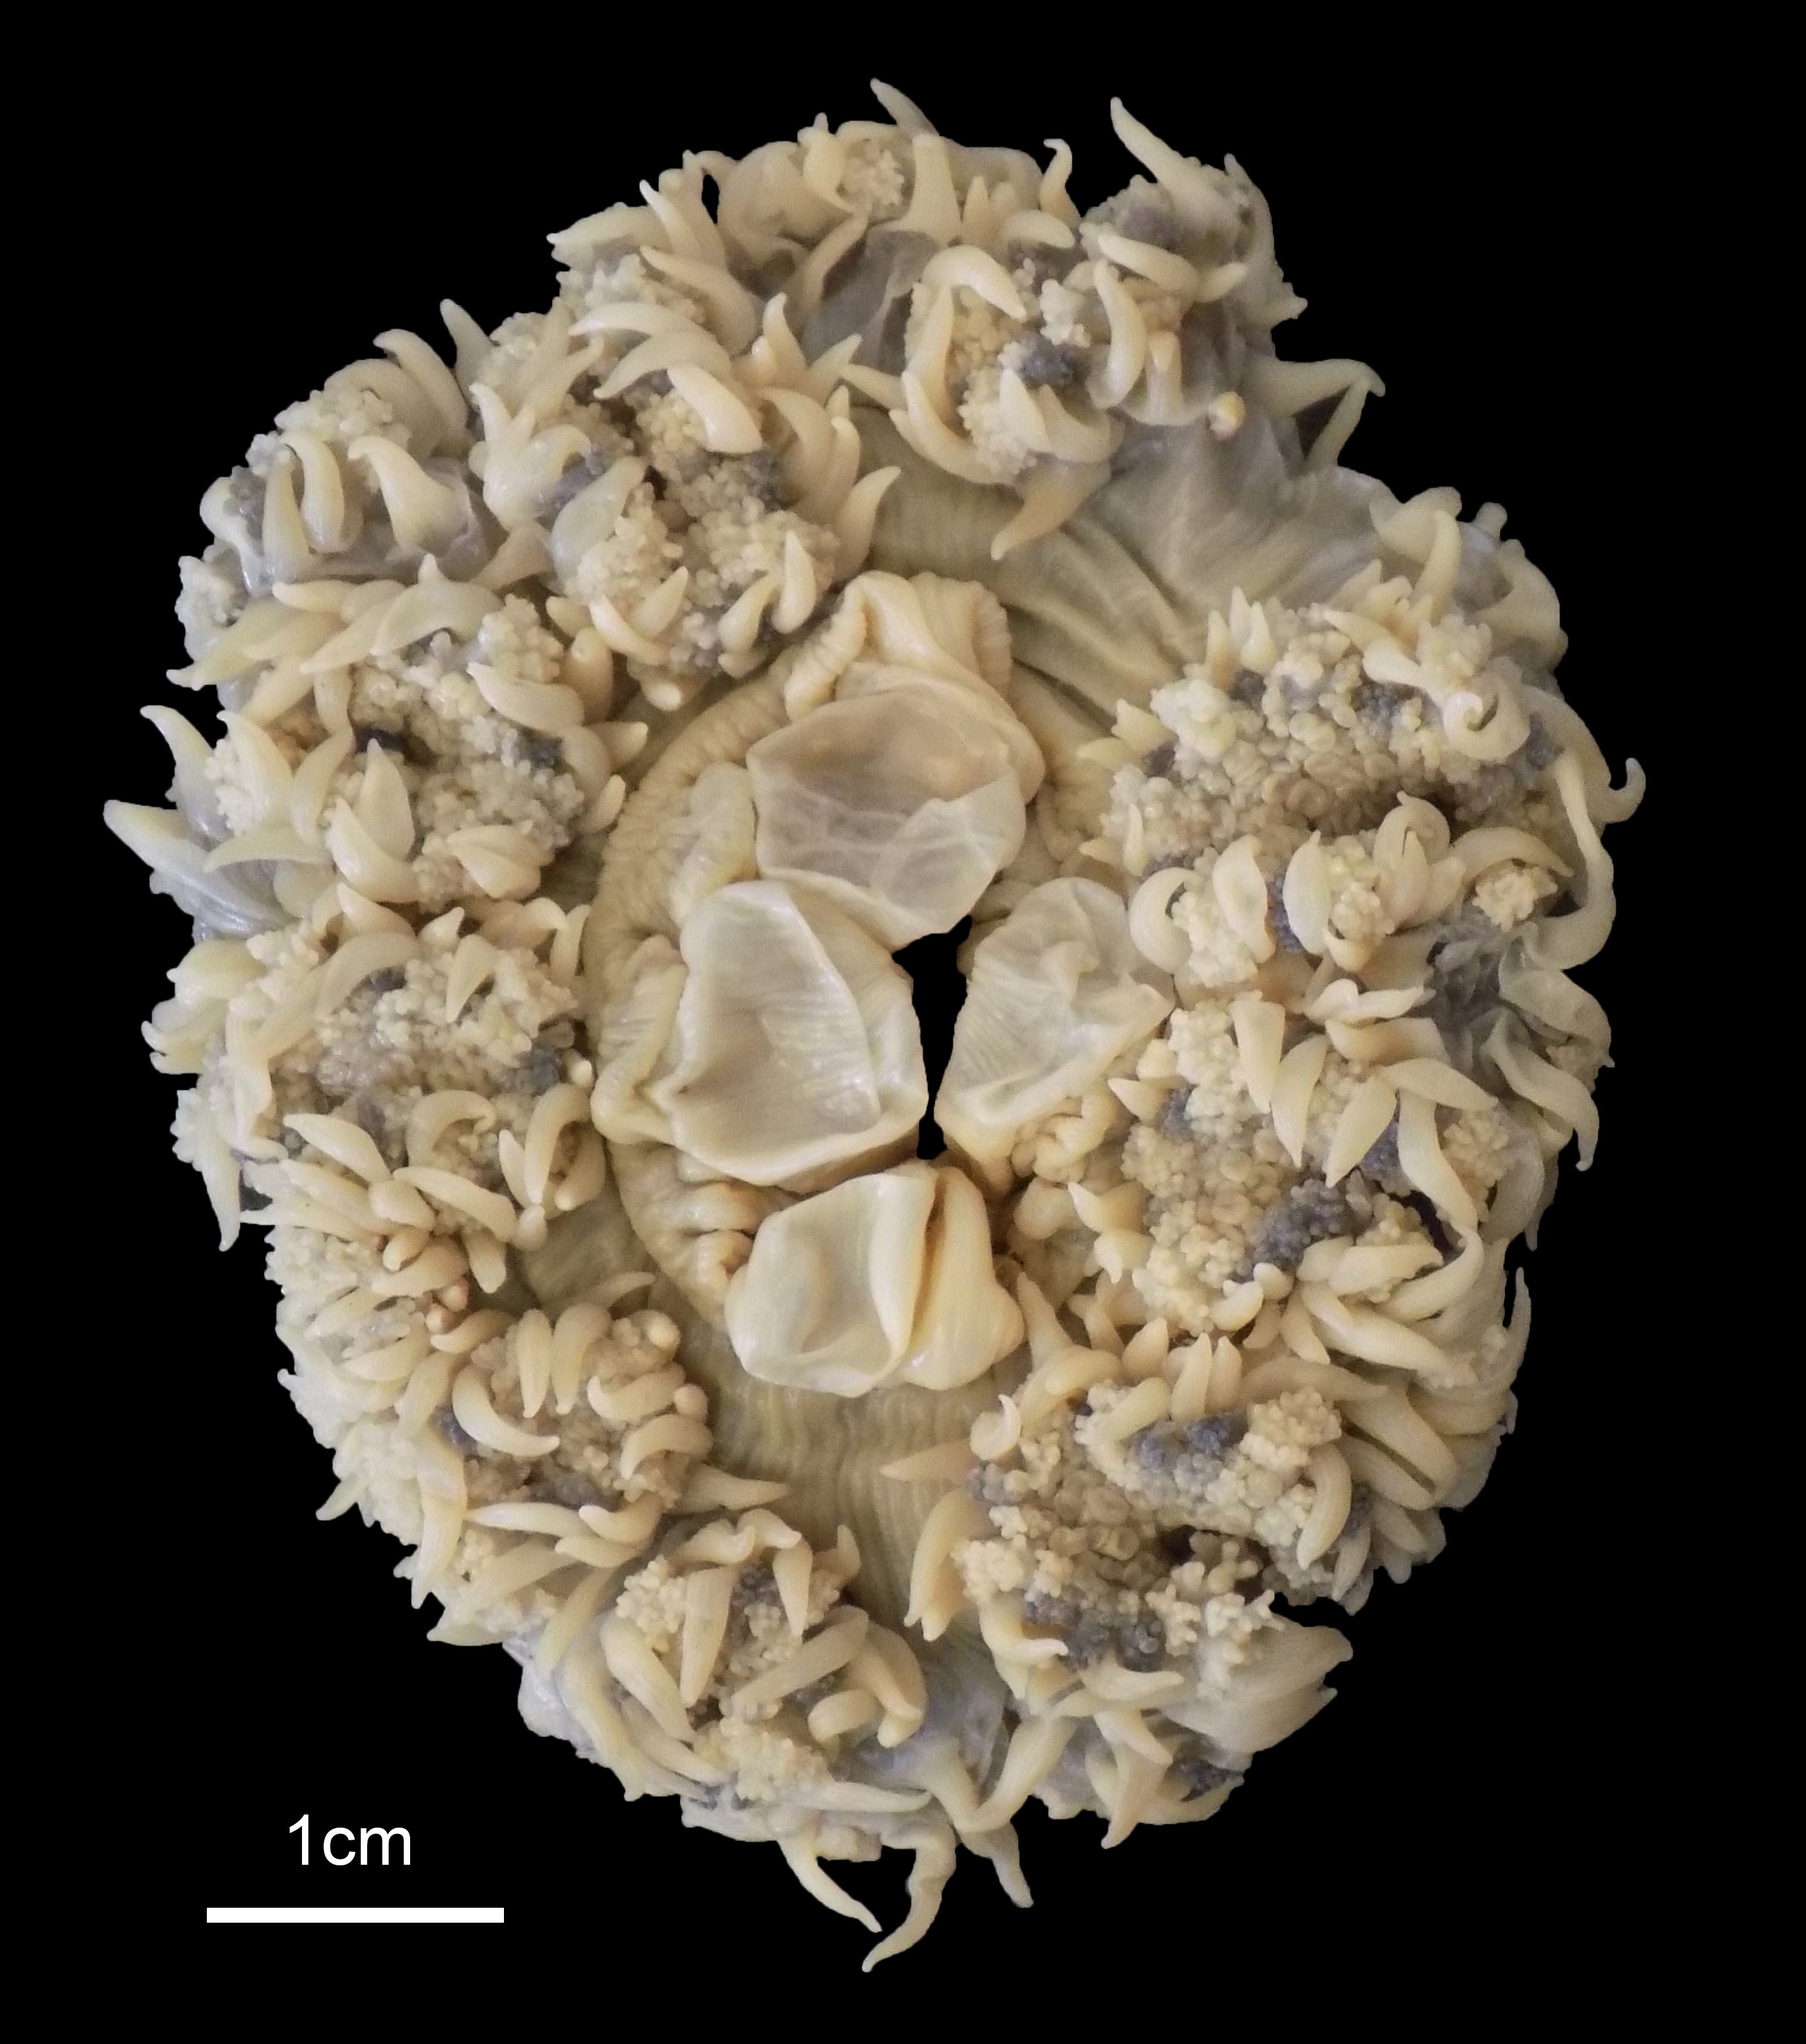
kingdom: Animalia
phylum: Cnidaria
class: Anthozoa
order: Actiniaria
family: Actiniidae
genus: Oulactis
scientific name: Oulactis concinnata
